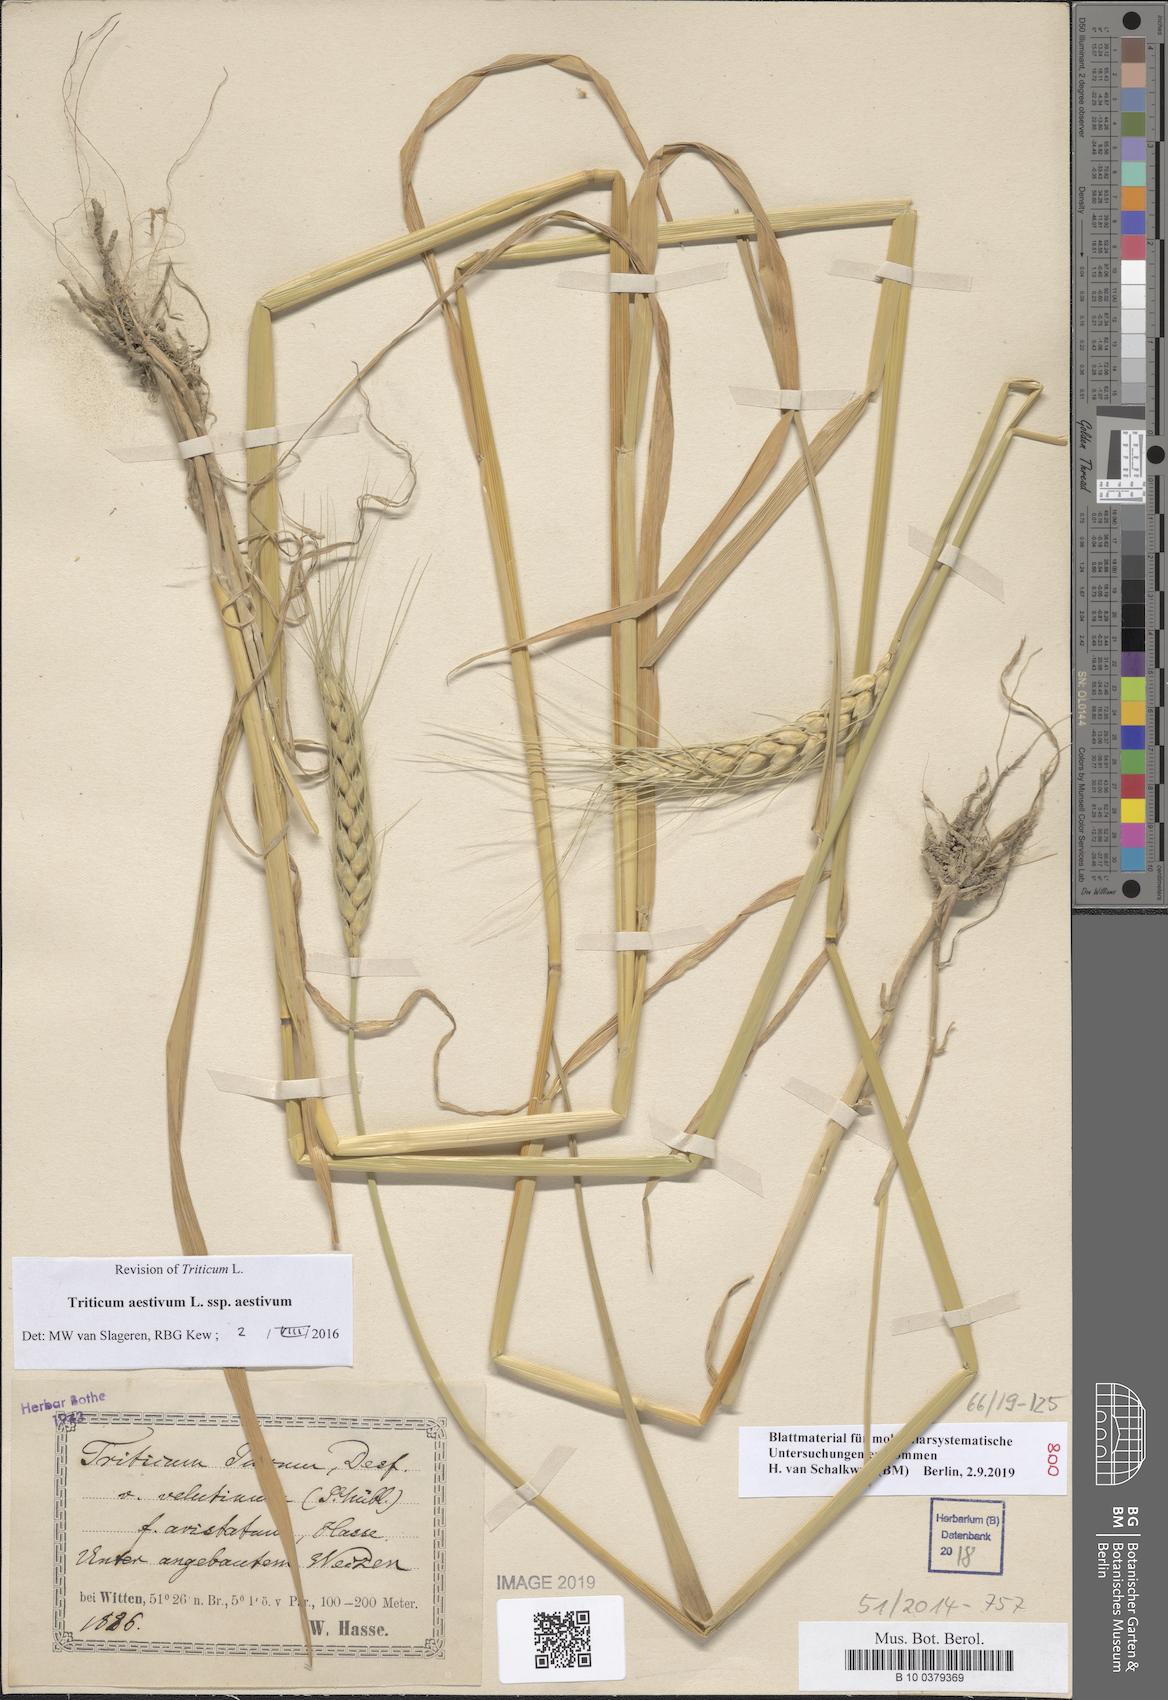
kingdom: Plantae
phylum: Tracheophyta
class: Liliopsida
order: Poales
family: Poaceae
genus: Triticum
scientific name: Triticum aestivum
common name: Common wheat
